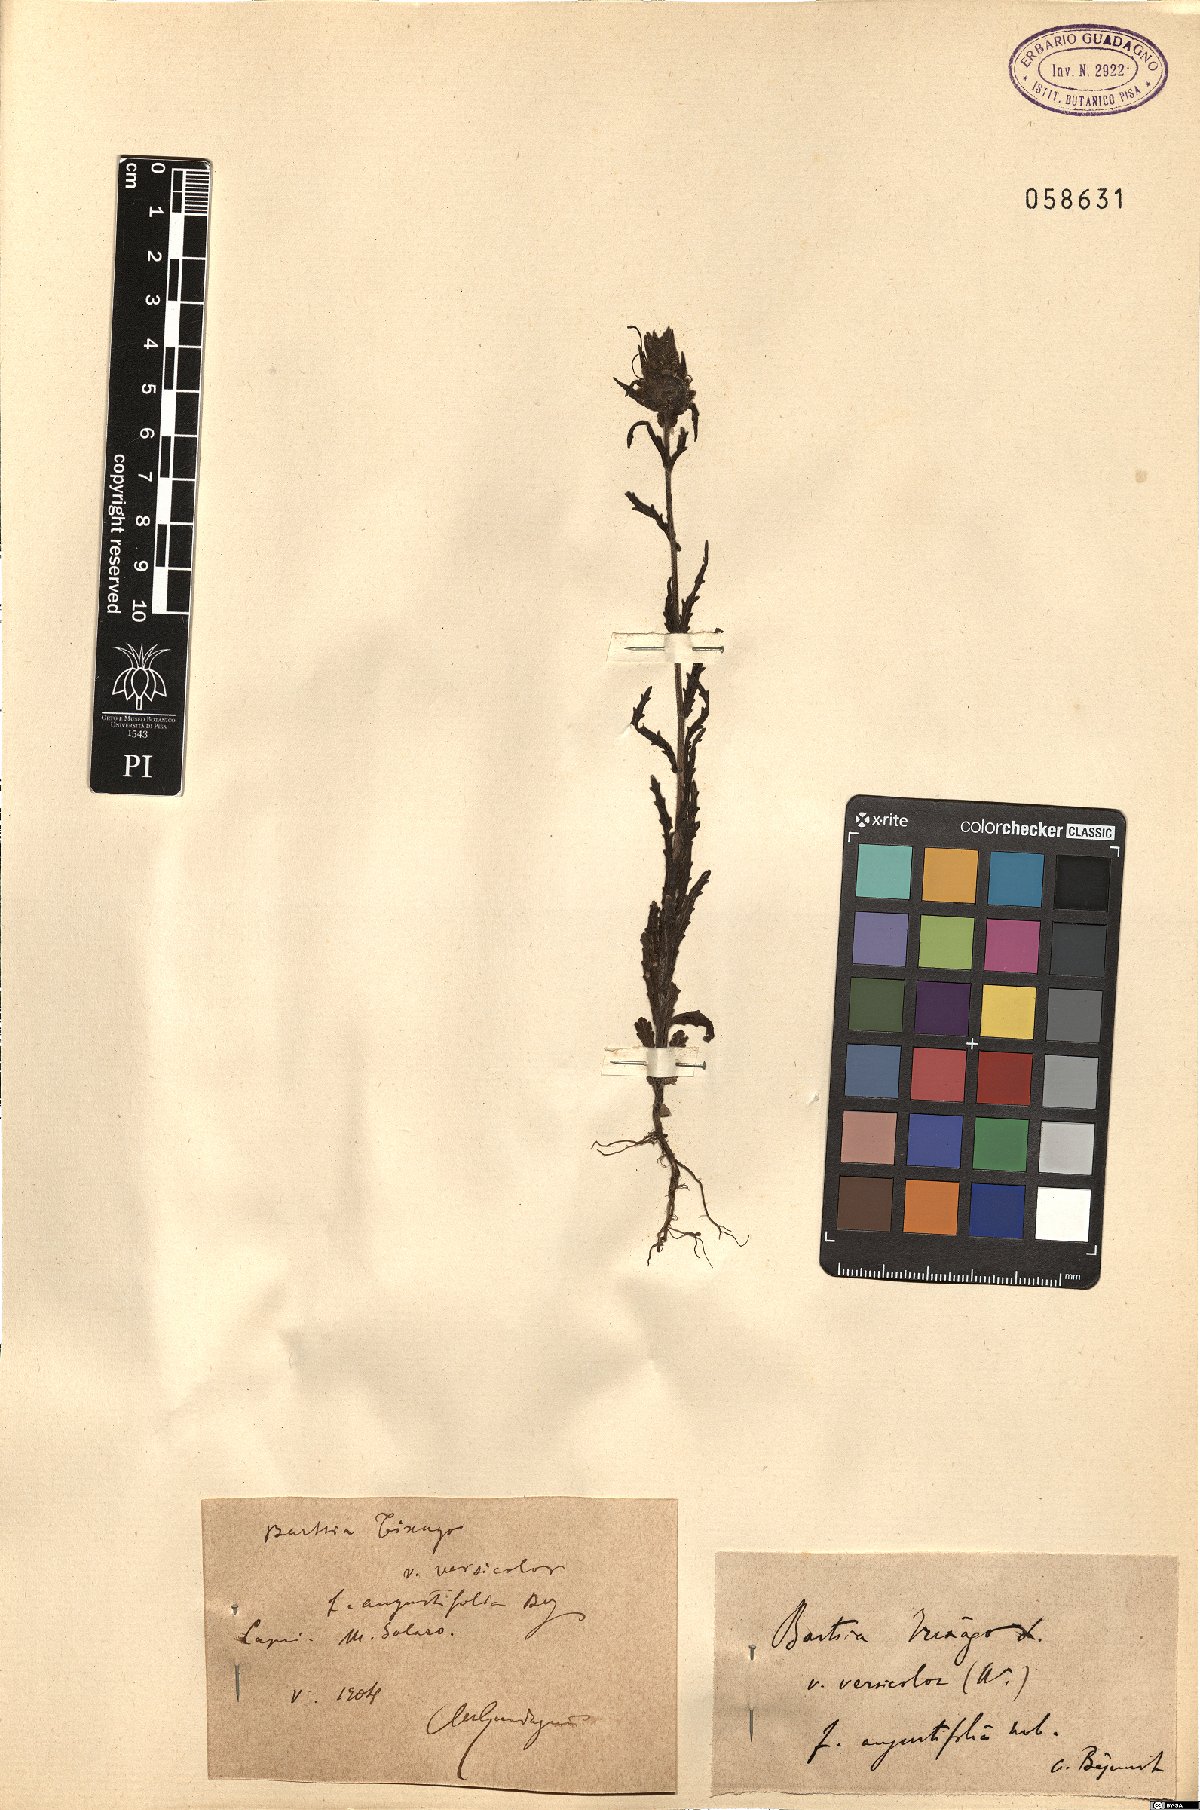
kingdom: Plantae
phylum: Tracheophyta
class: Magnoliopsida
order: Lamiales
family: Orobanchaceae
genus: Bellardia
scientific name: Bellardia trixago
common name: Mediterranean lineseed
